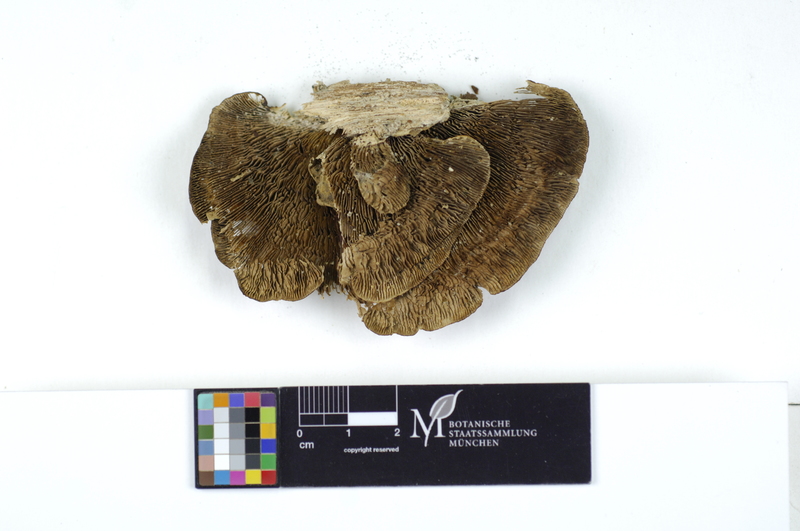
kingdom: Plantae
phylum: Tracheophyta
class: Magnoliopsida
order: Fagales
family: Juglandaceae
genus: Juglans
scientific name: Juglans
